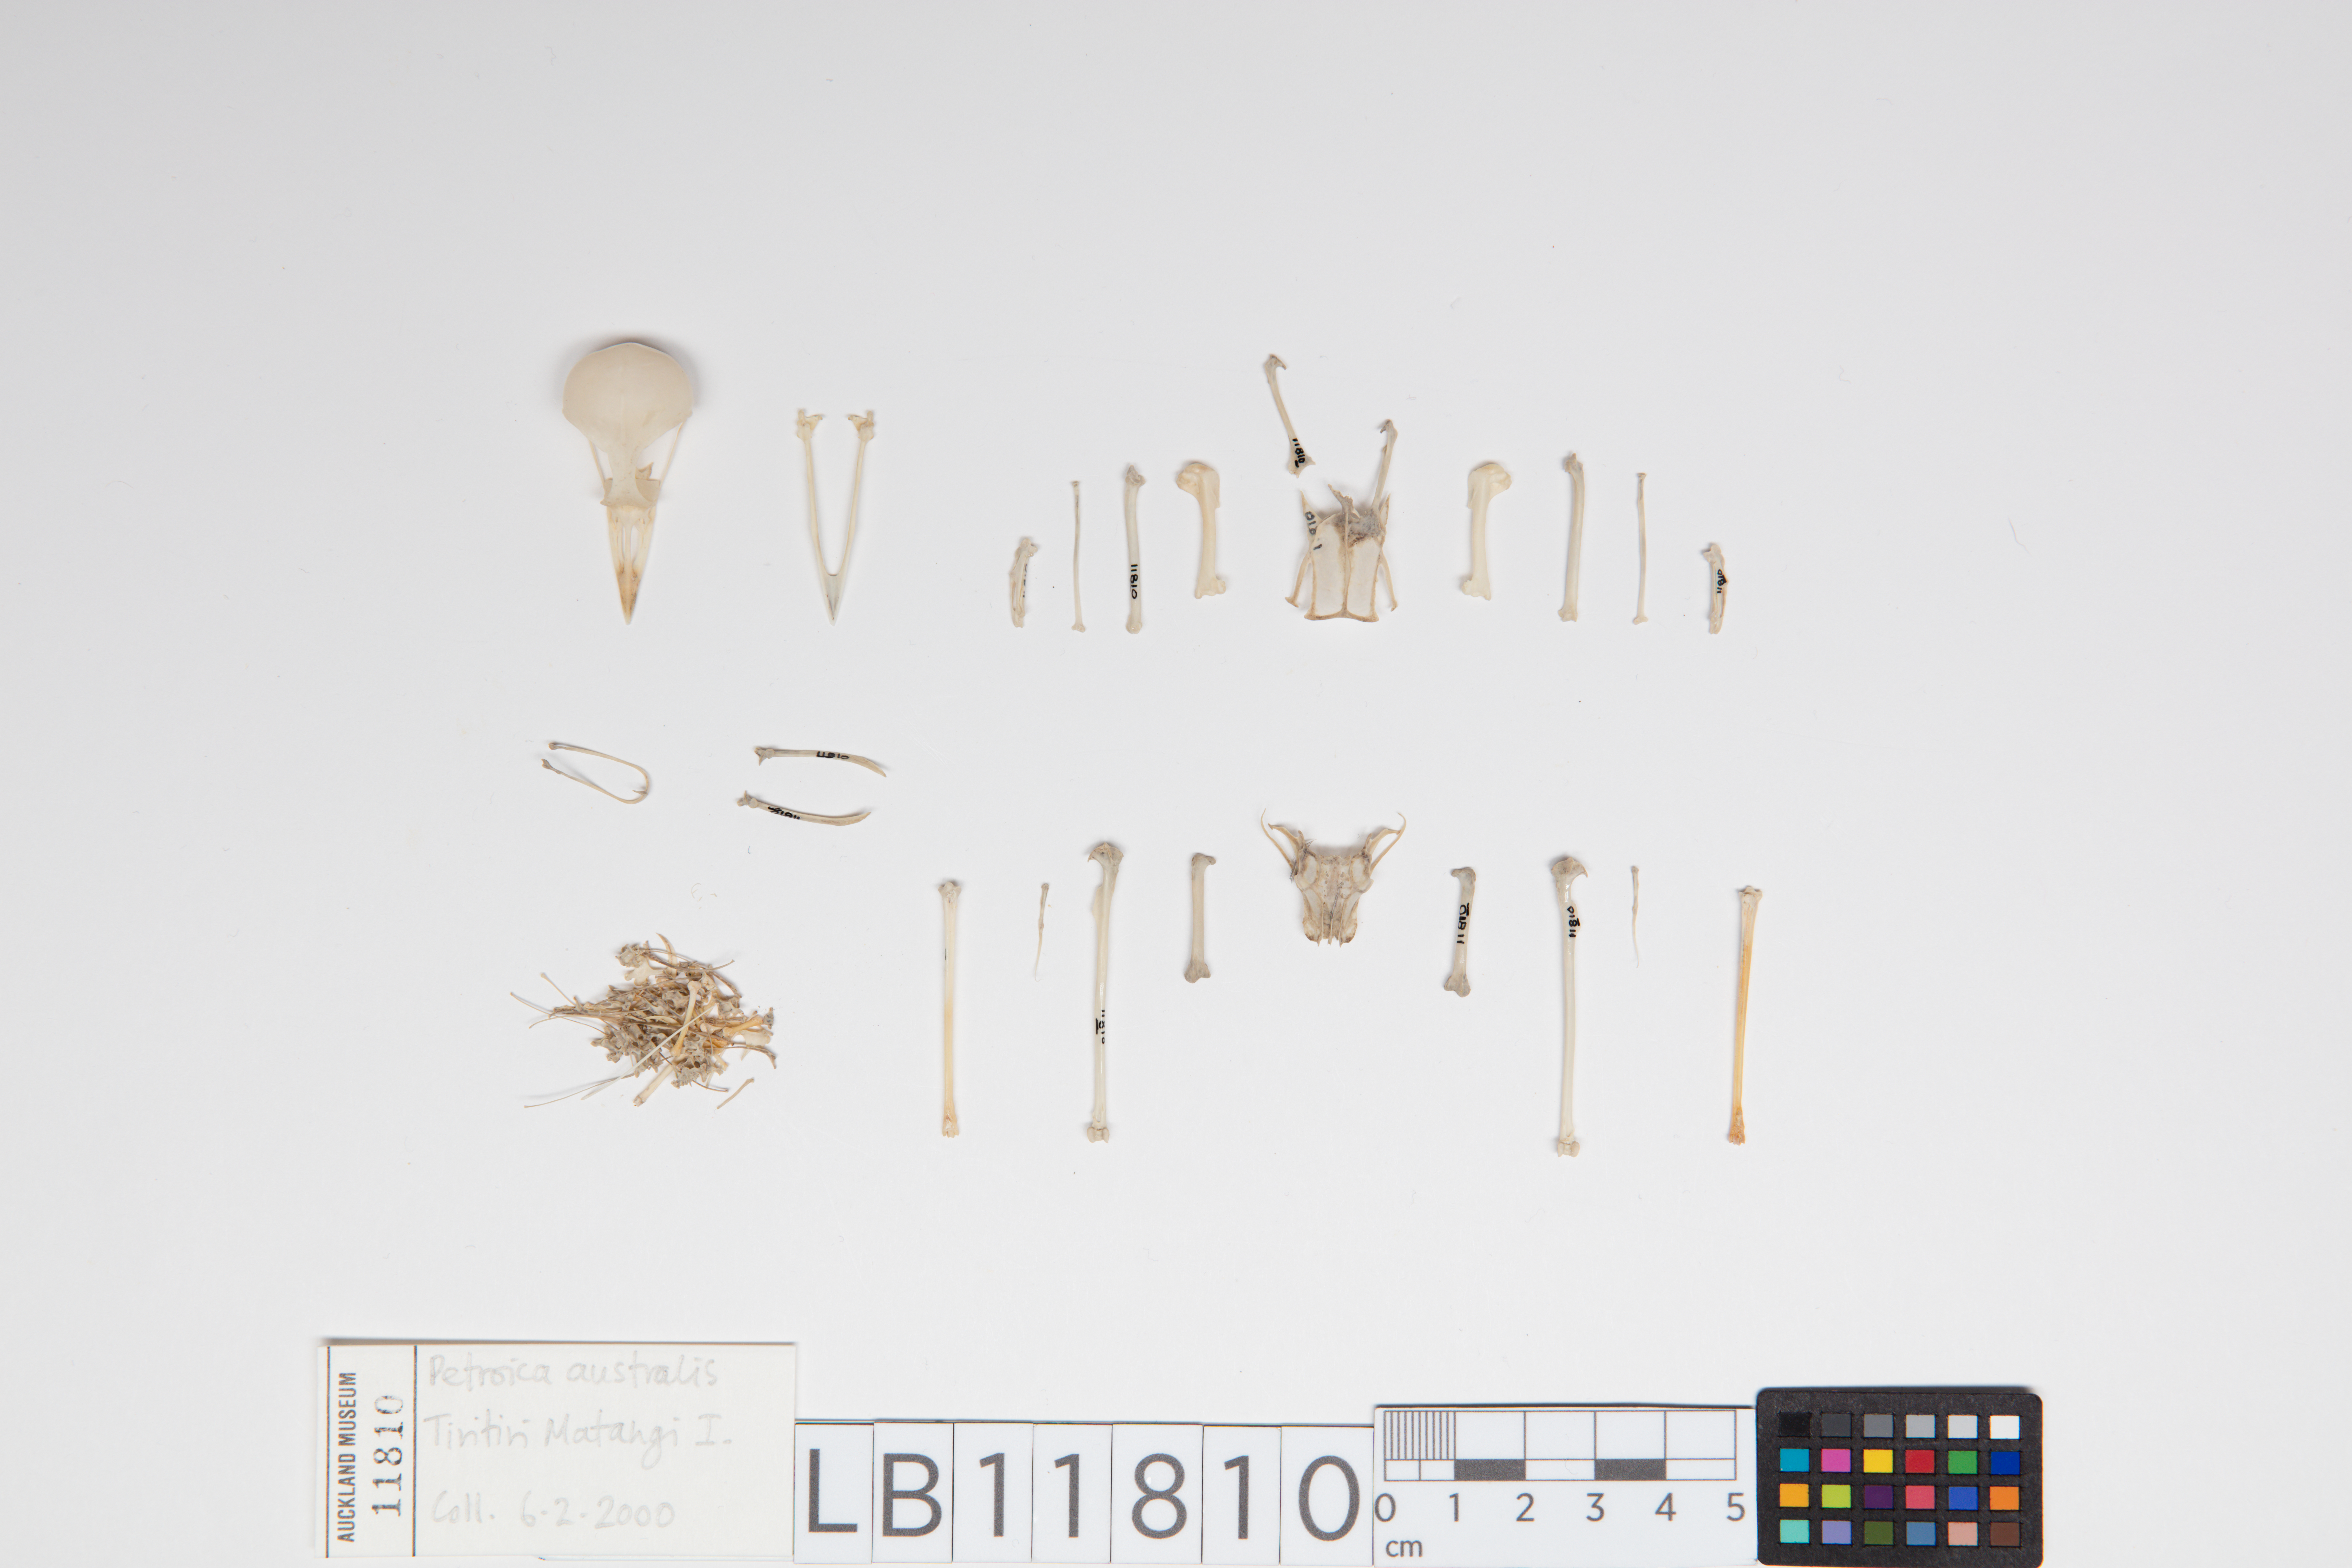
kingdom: Animalia
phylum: Chordata
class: Aves
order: Passeriformes
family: Petroicidae
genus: Petroica
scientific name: Petroica australis
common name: New zealand robin
